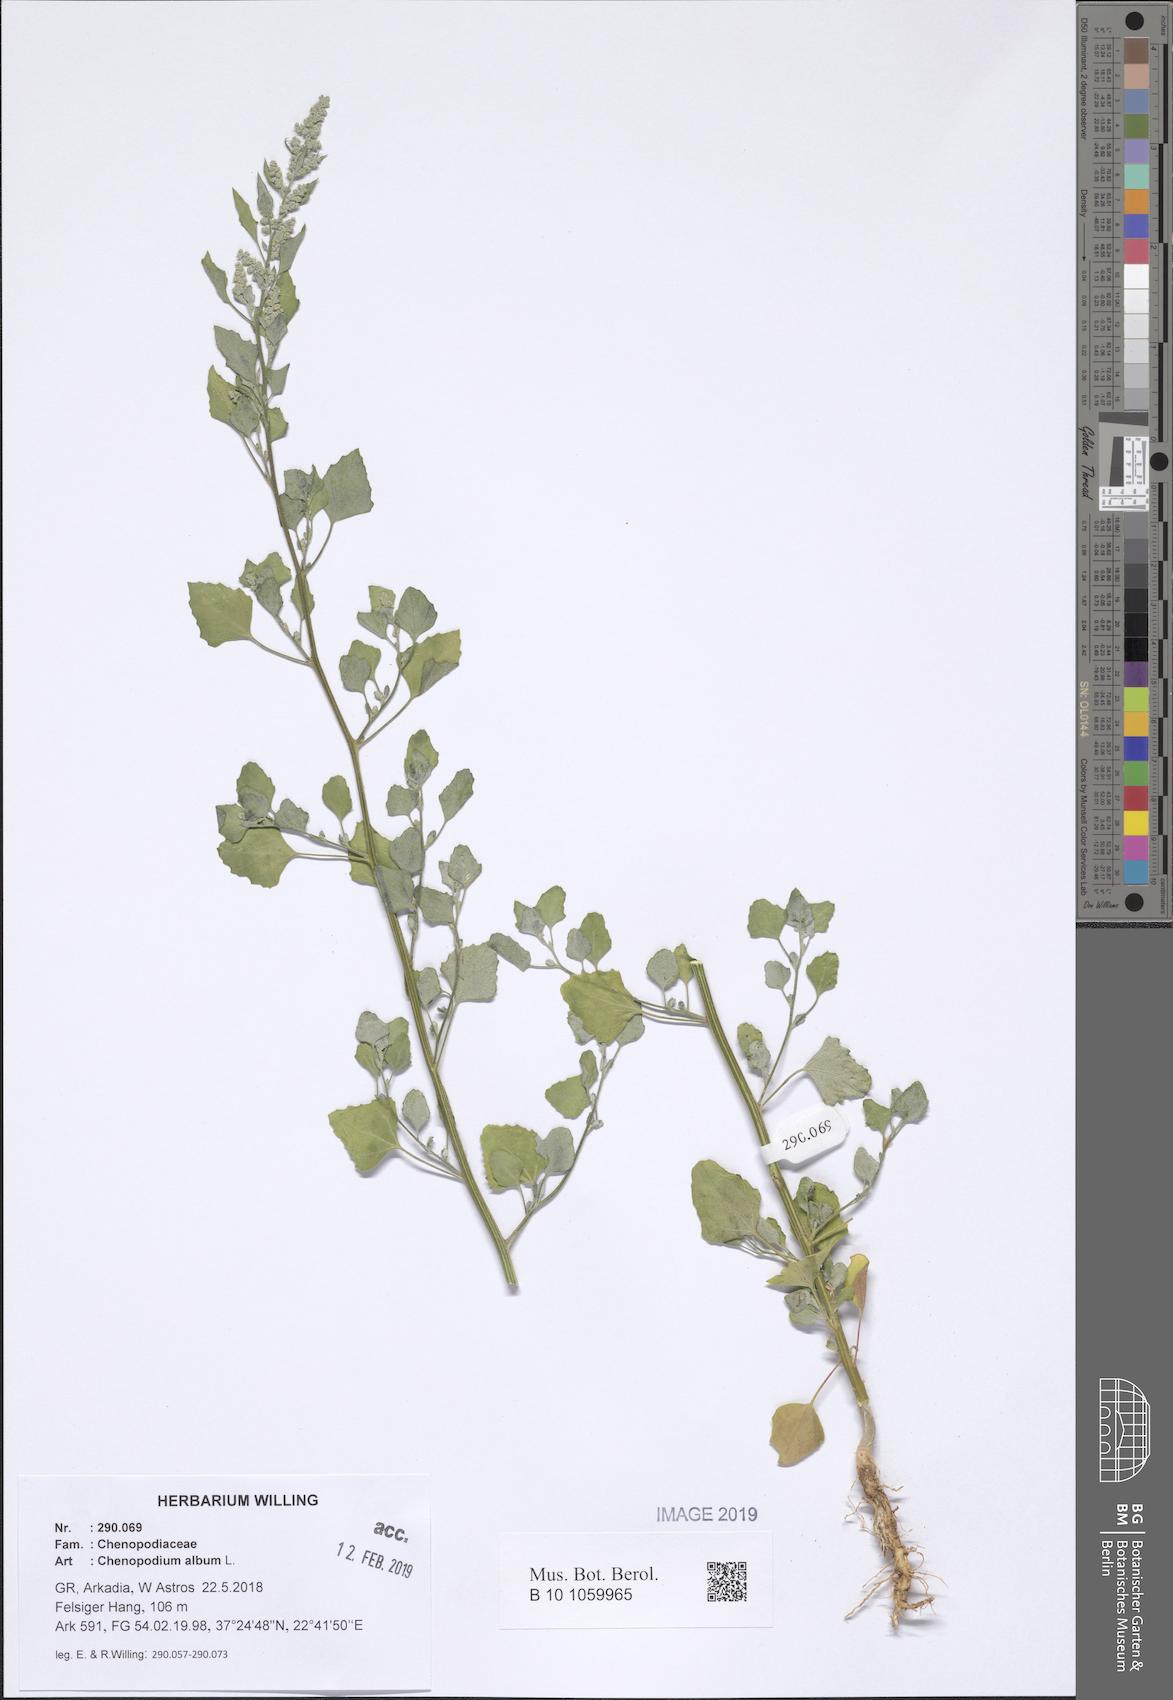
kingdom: Plantae
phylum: Tracheophyta
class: Magnoliopsida
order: Caryophyllales
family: Amaranthaceae
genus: Chenopodium
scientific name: Chenopodium opulifolium
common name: Grey goosefoot
